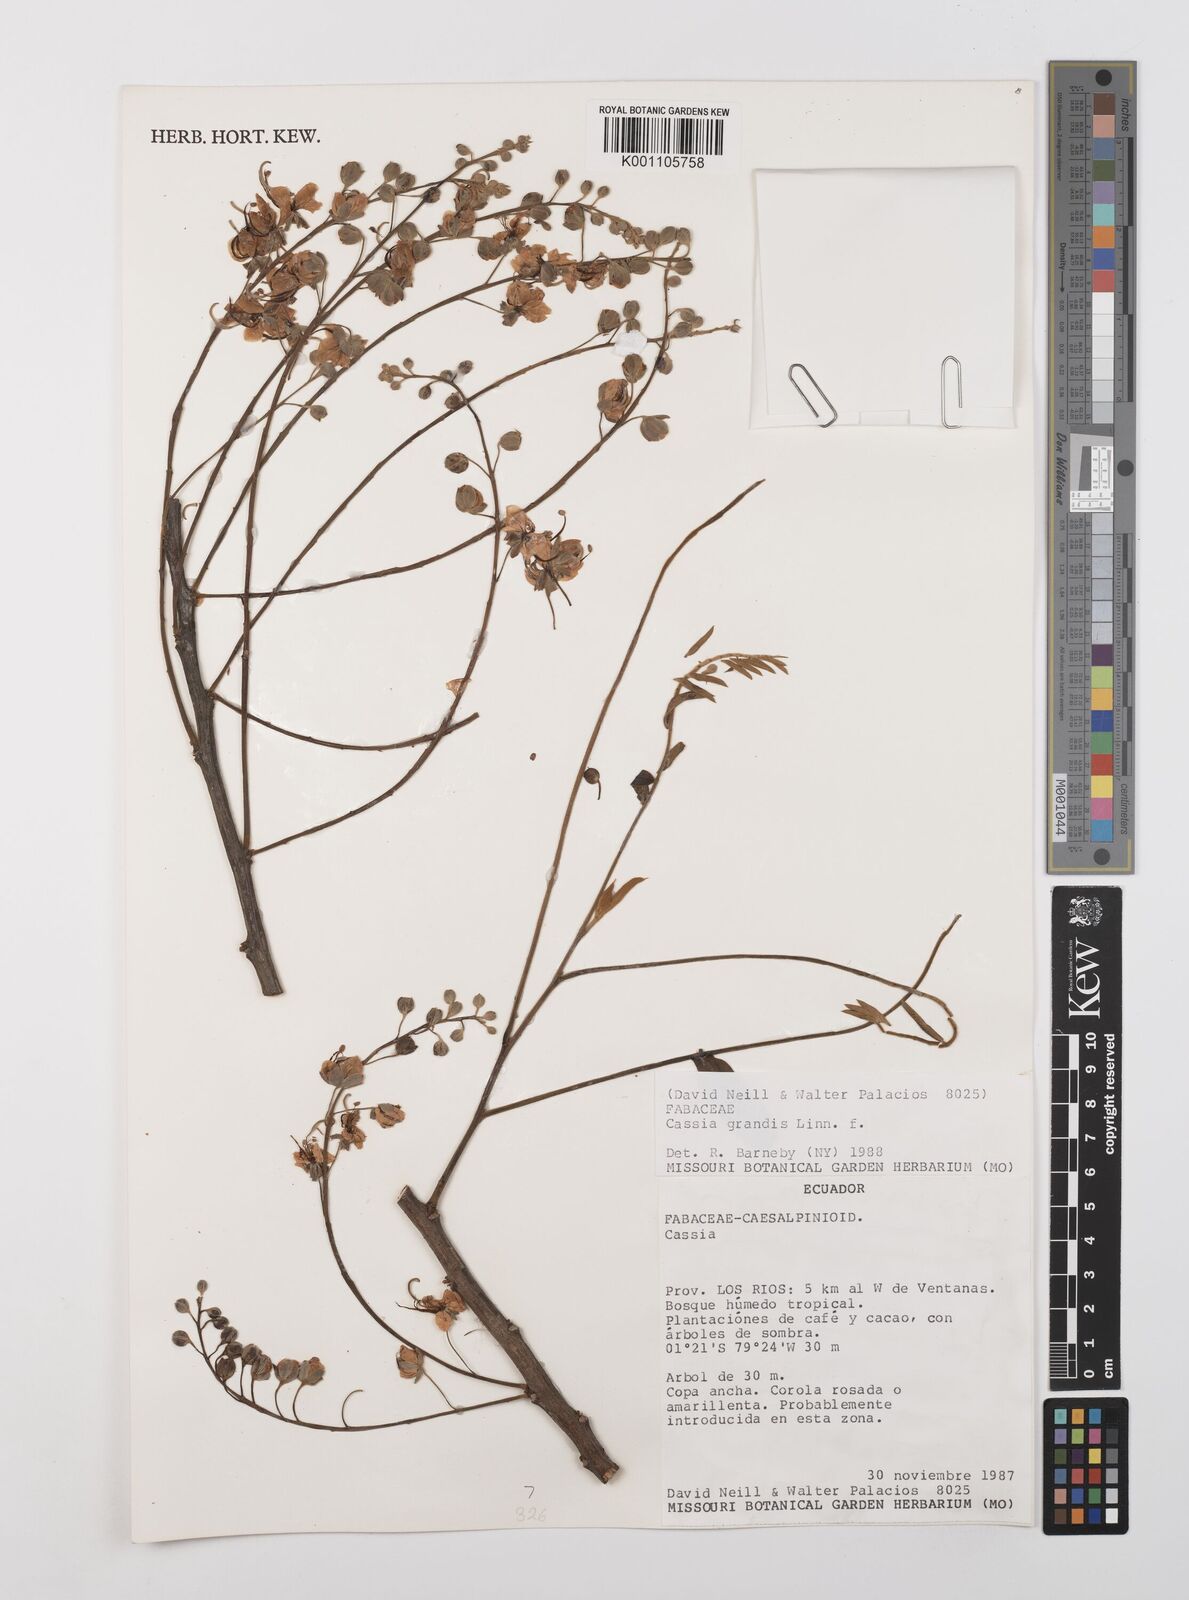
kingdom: Plantae
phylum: Tracheophyta
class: Magnoliopsida
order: Fabales
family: Fabaceae
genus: Cassia
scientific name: Cassia grandis
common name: Appleblossom cassia
